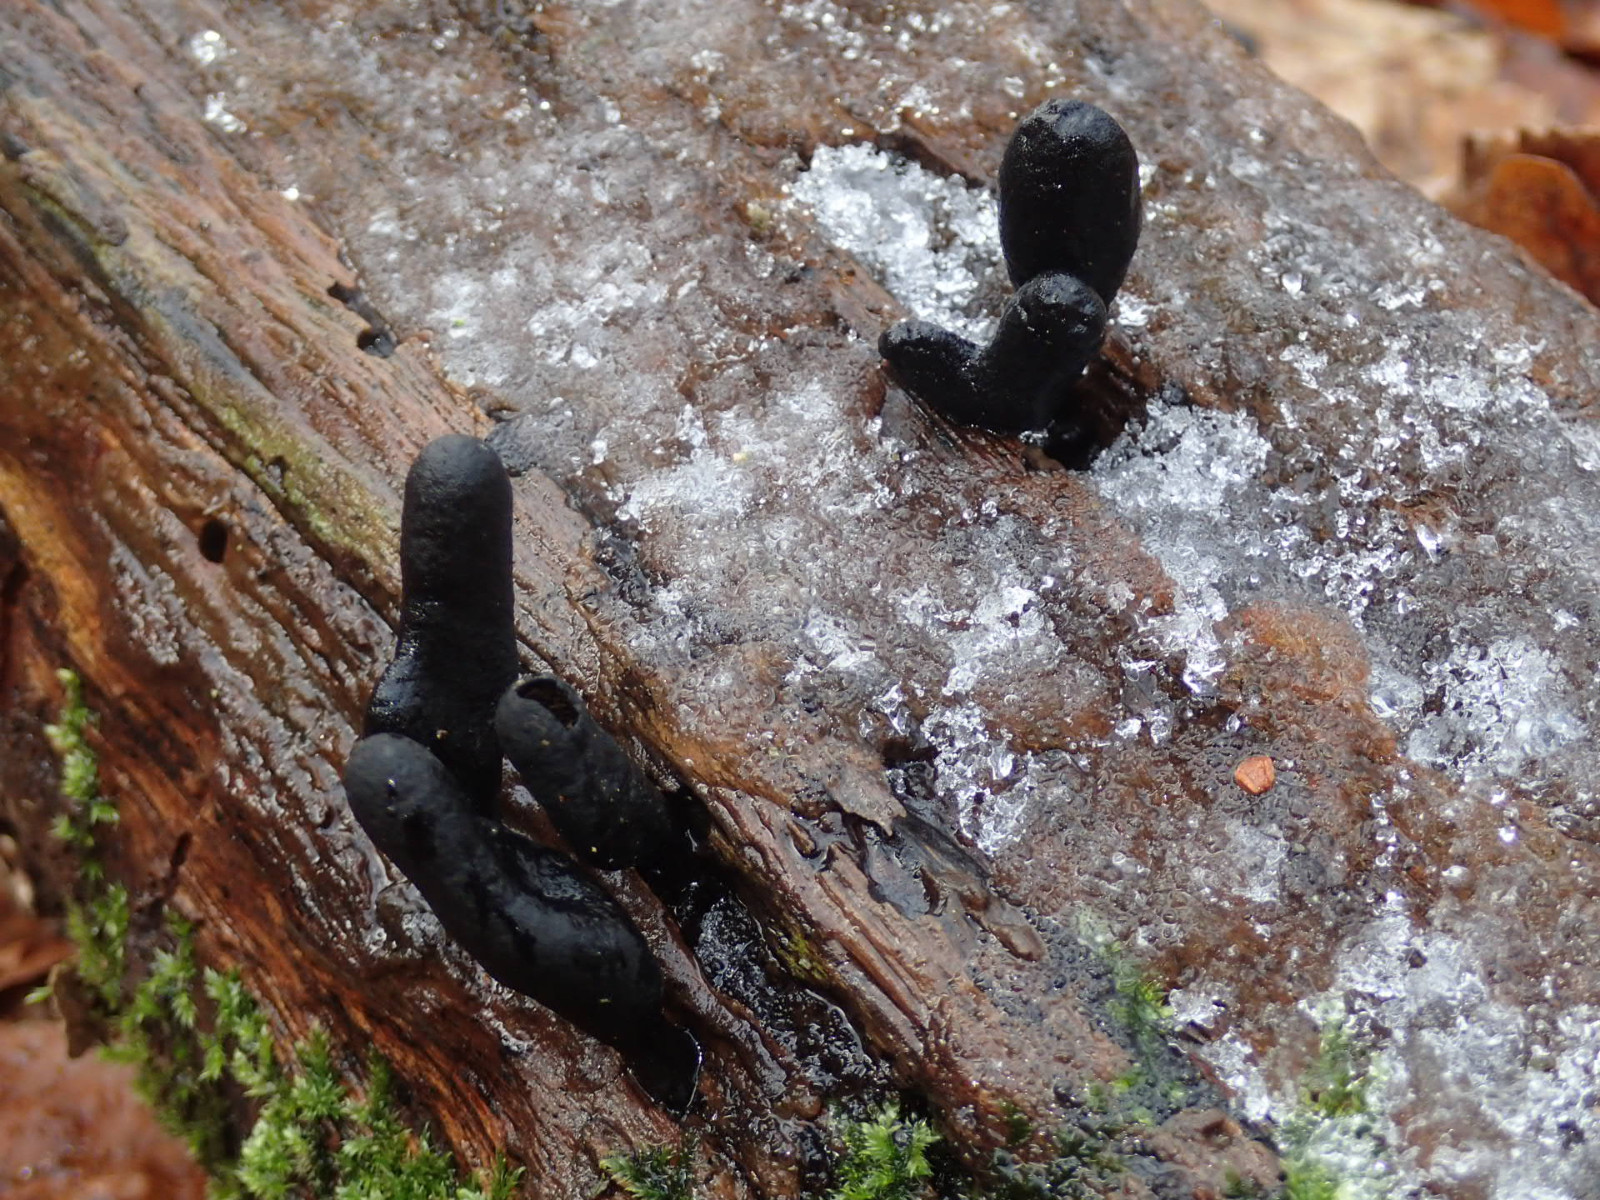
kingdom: Fungi
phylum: Ascomycota
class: Sordariomycetes
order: Xylariales
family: Xylariaceae
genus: Xylaria
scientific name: Xylaria polymorpha
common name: kølle-stødsvamp
